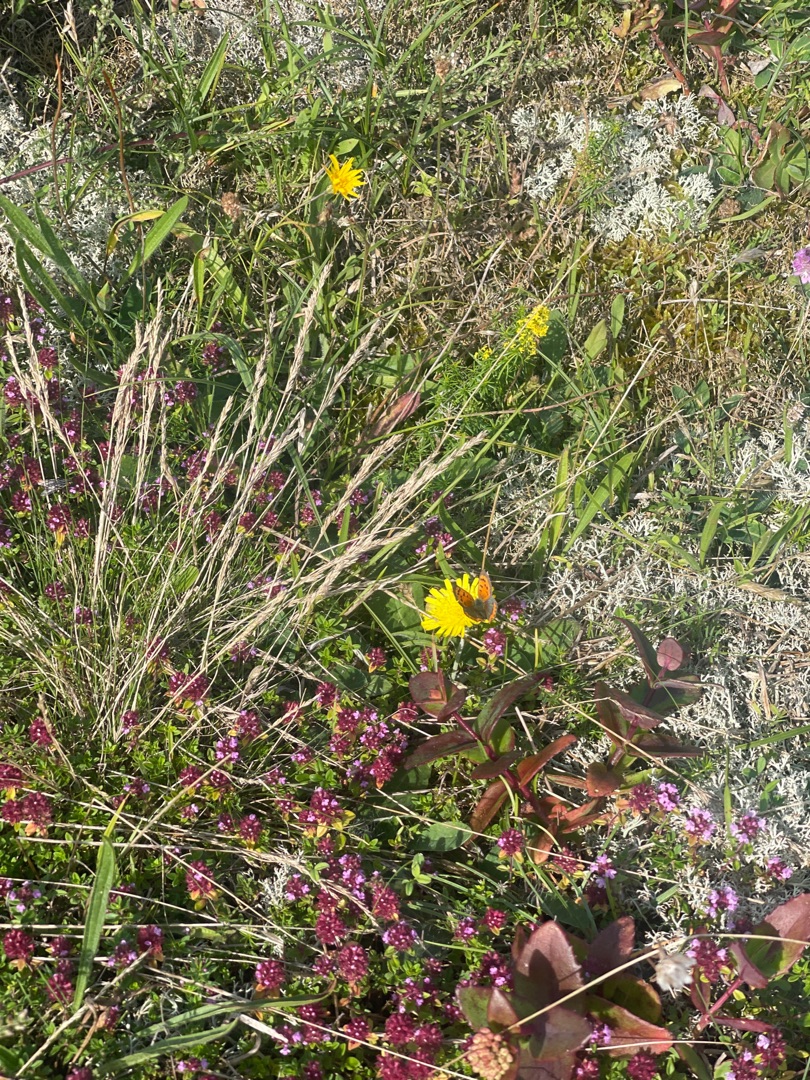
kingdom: Animalia
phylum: Arthropoda
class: Insecta
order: Lepidoptera
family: Lycaenidae
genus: Lycaena
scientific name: Lycaena phlaeas
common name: Lille ildfugl
